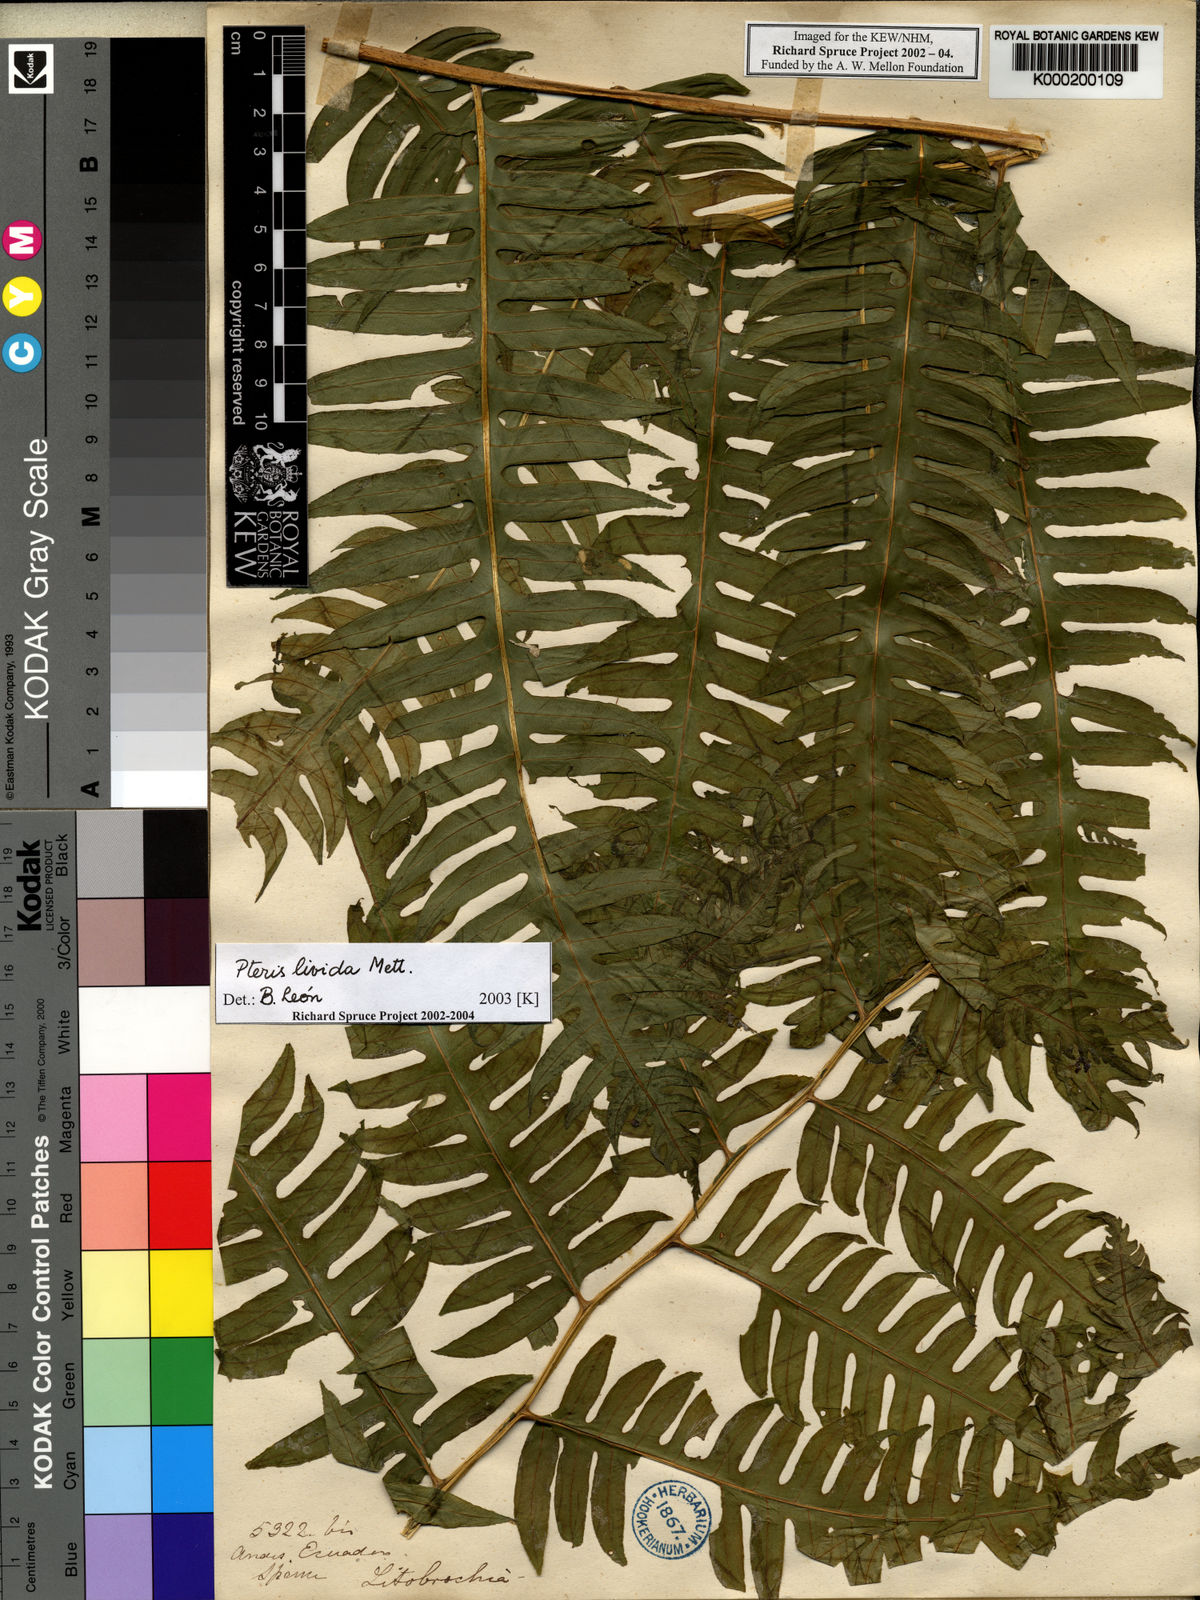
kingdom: Plantae
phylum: Tracheophyta
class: Polypodiopsida
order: Polypodiales
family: Pteridaceae
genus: Pteris
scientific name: Pteris
